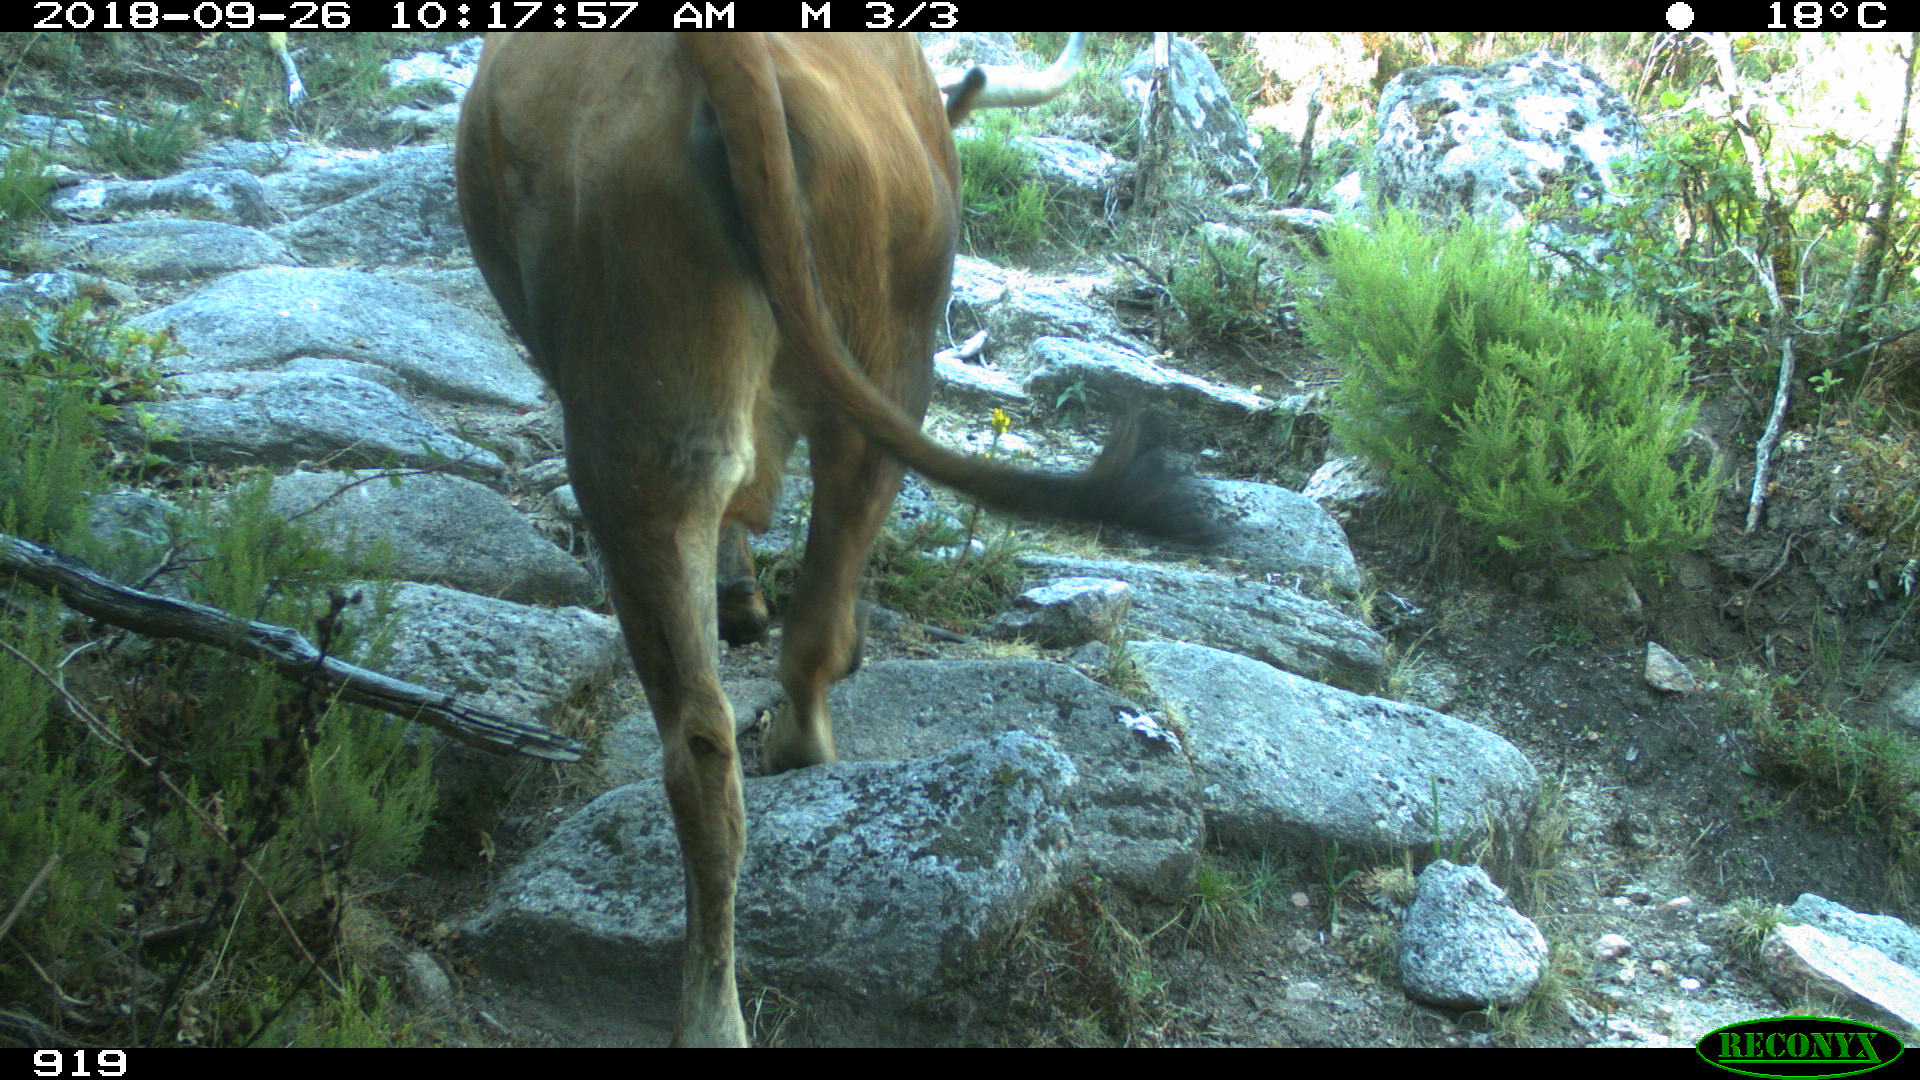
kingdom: Animalia
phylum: Chordata
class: Mammalia
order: Artiodactyla
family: Bovidae
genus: Bos
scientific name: Bos taurus
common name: Domesticated cattle
